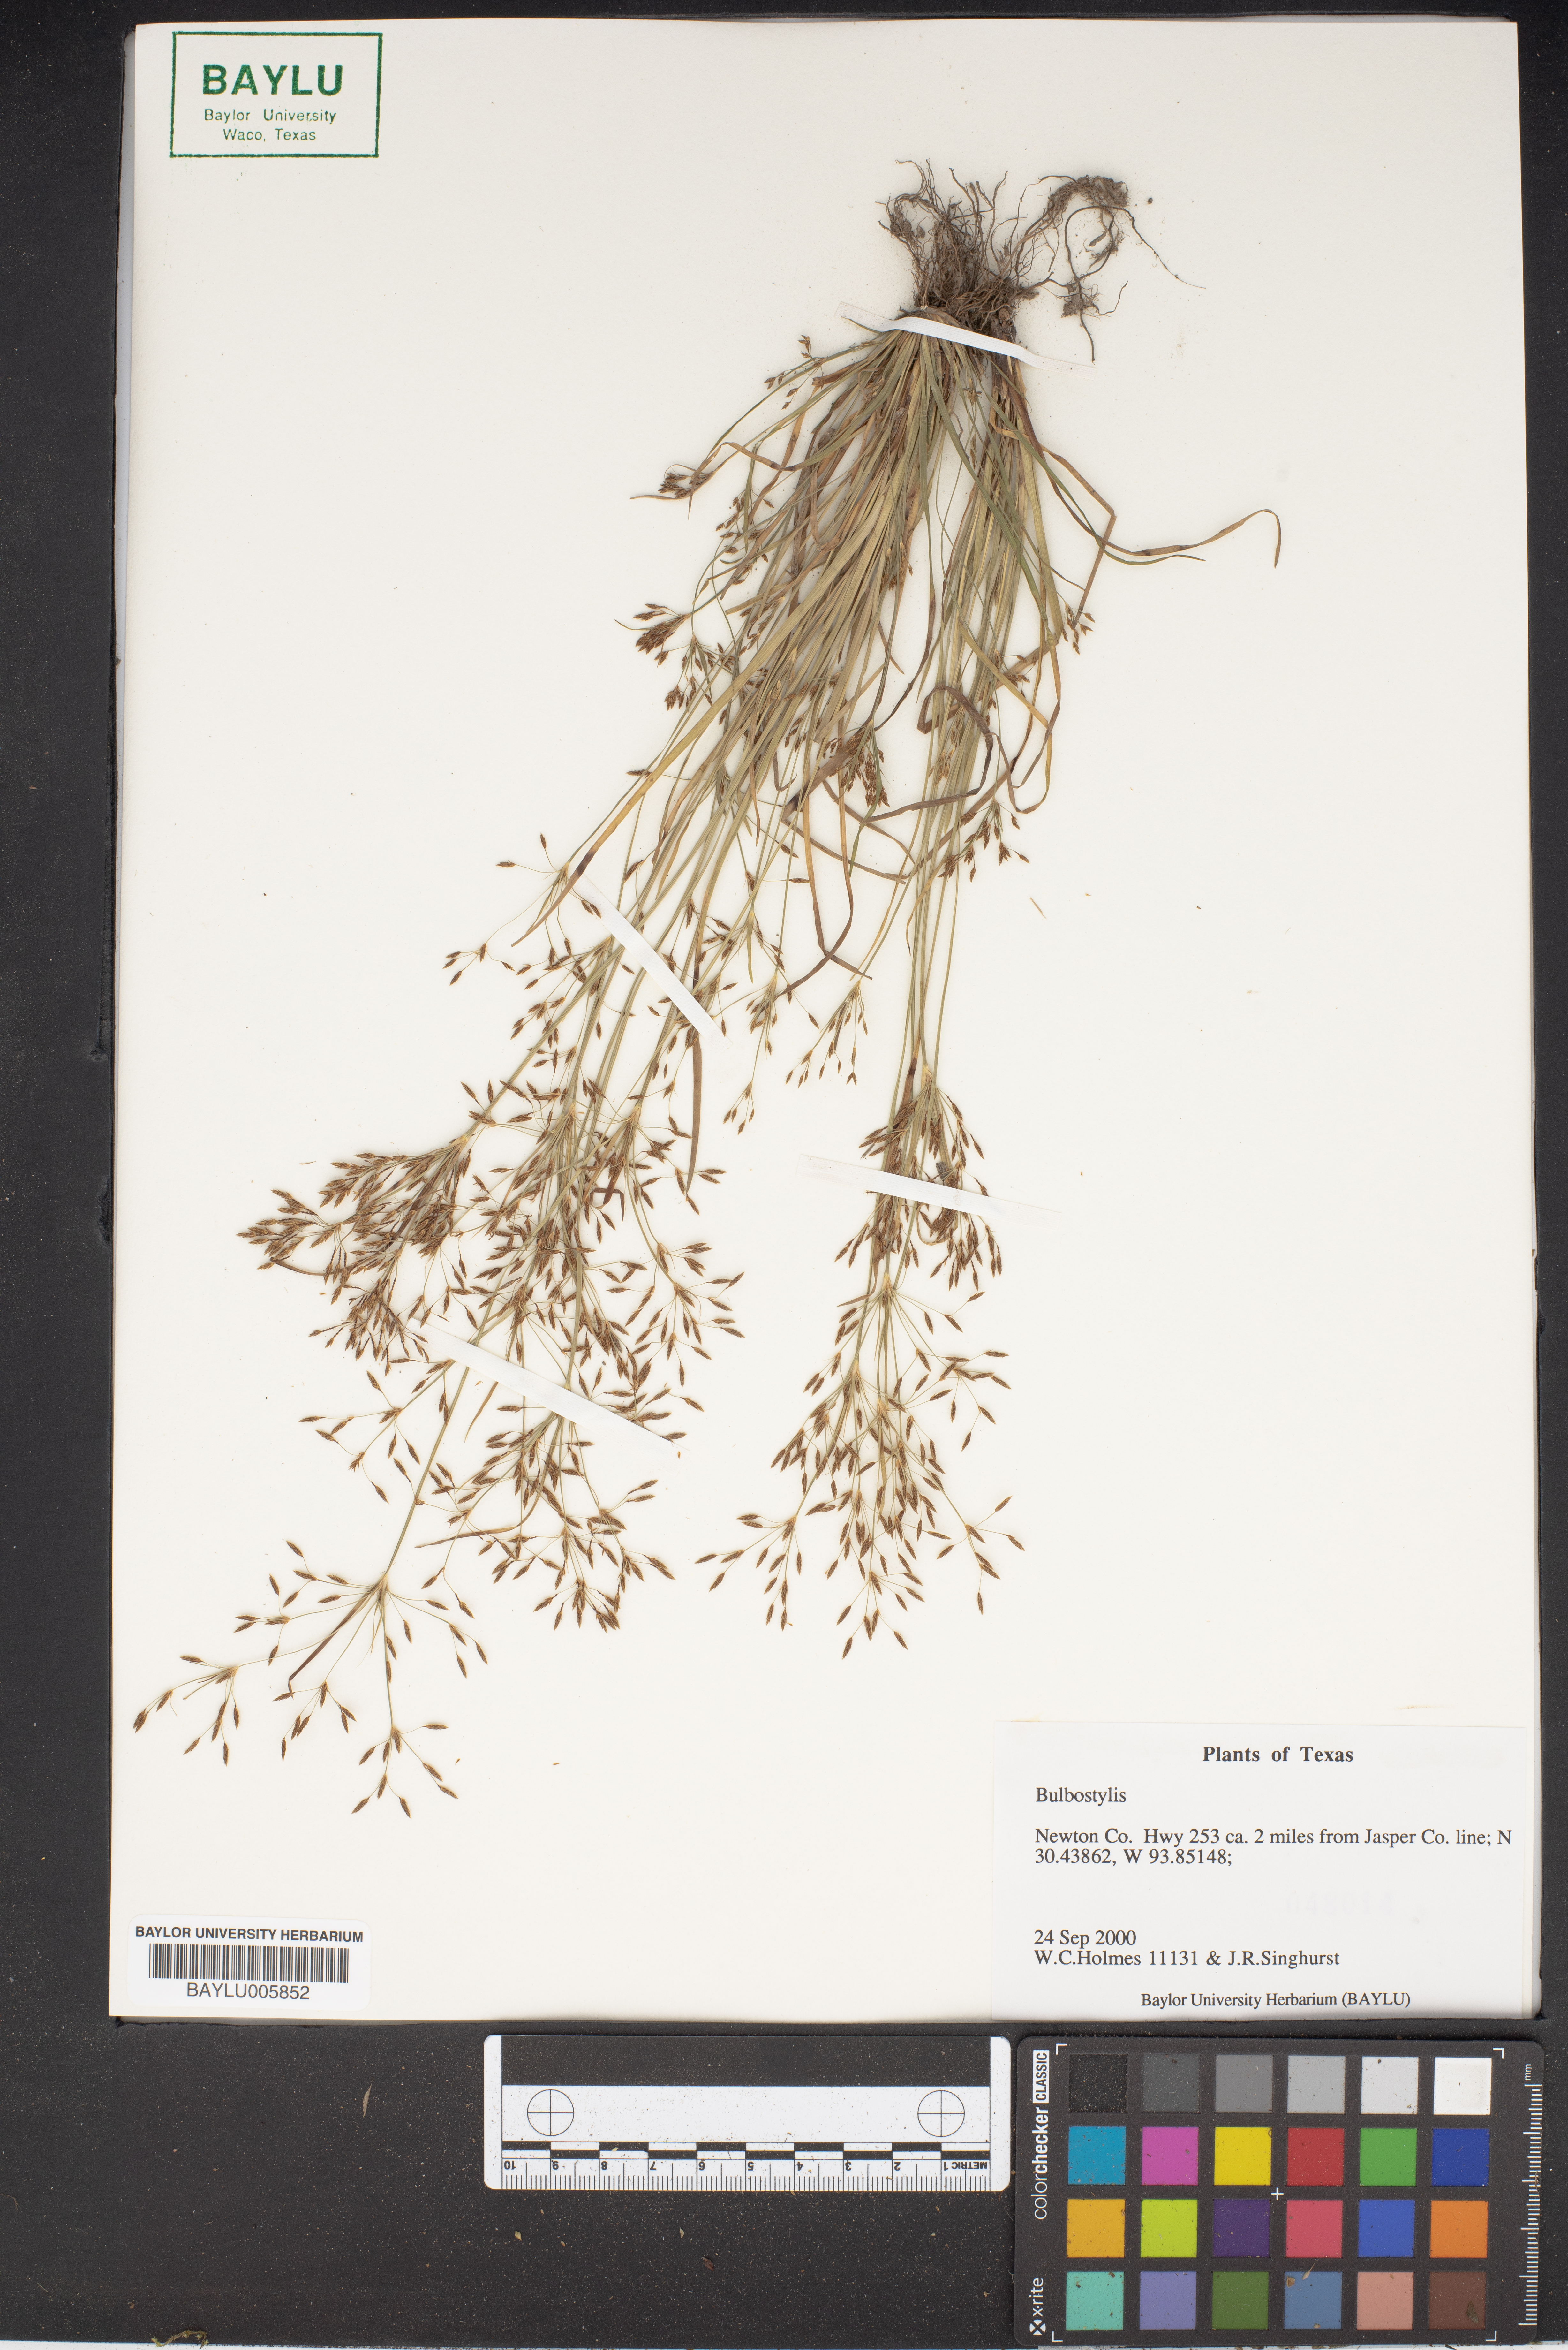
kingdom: Plantae
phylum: Tracheophyta
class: Liliopsida
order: Poales
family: Cyperaceae
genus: Bulbostylis
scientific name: Bulbostylis
